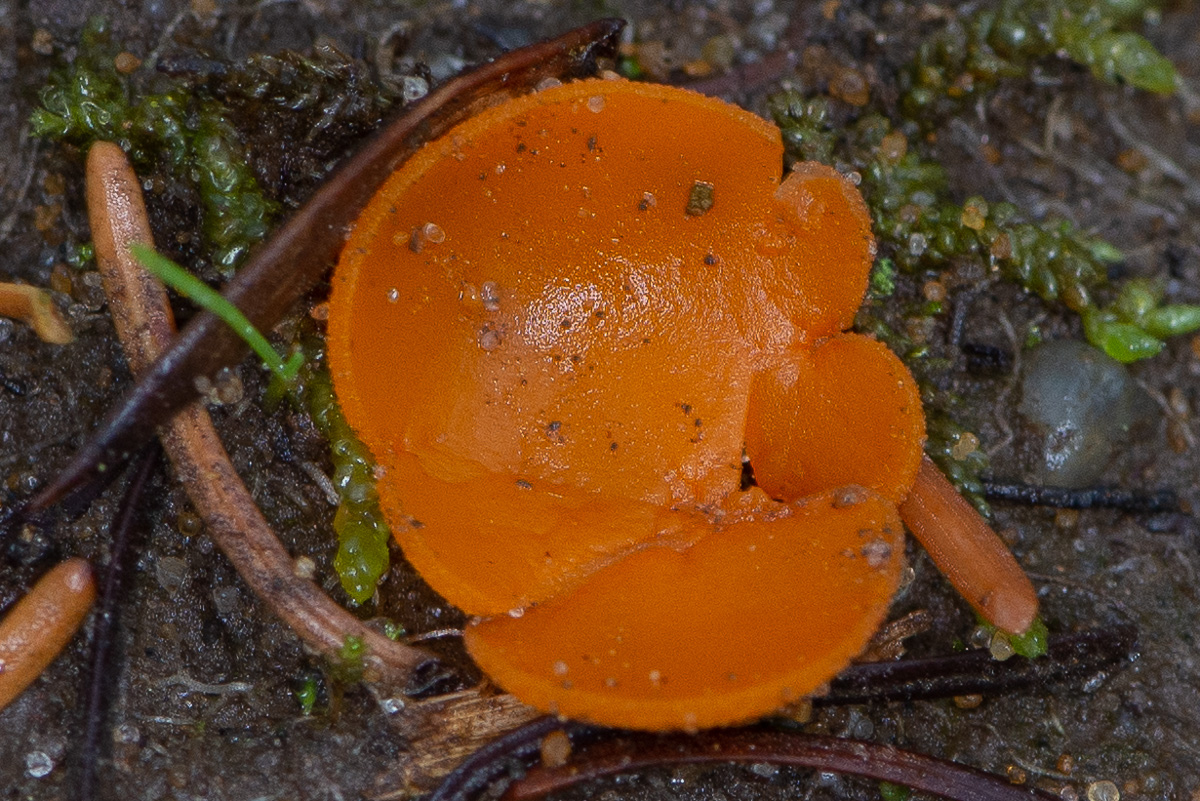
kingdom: Fungi
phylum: Ascomycota
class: Pezizomycetes
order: Pezizales
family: Pyronemataceae
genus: Aleuria
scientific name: Aleuria aurantia
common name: almindelig orangebæger
